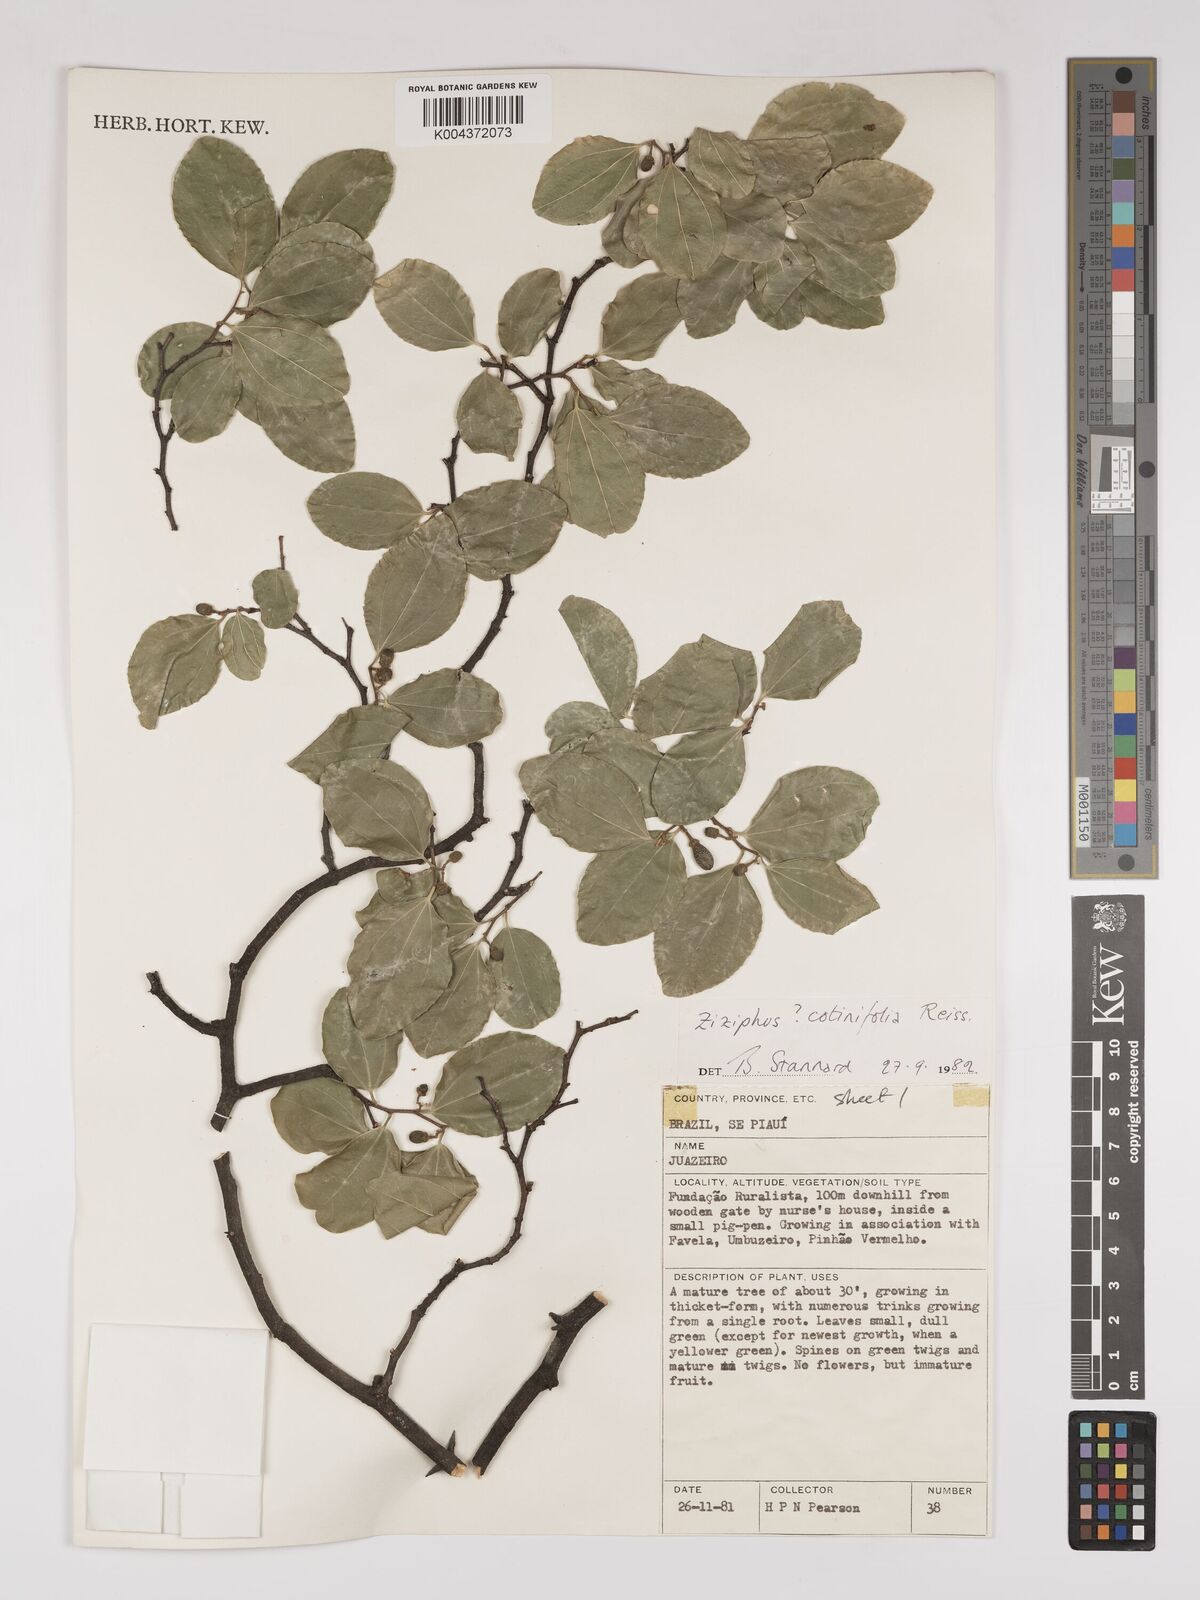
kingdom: Plantae
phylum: Tracheophyta
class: Magnoliopsida
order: Rosales
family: Rhamnaceae
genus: Sarcomphalus
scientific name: Sarcomphalus cotinifolius
